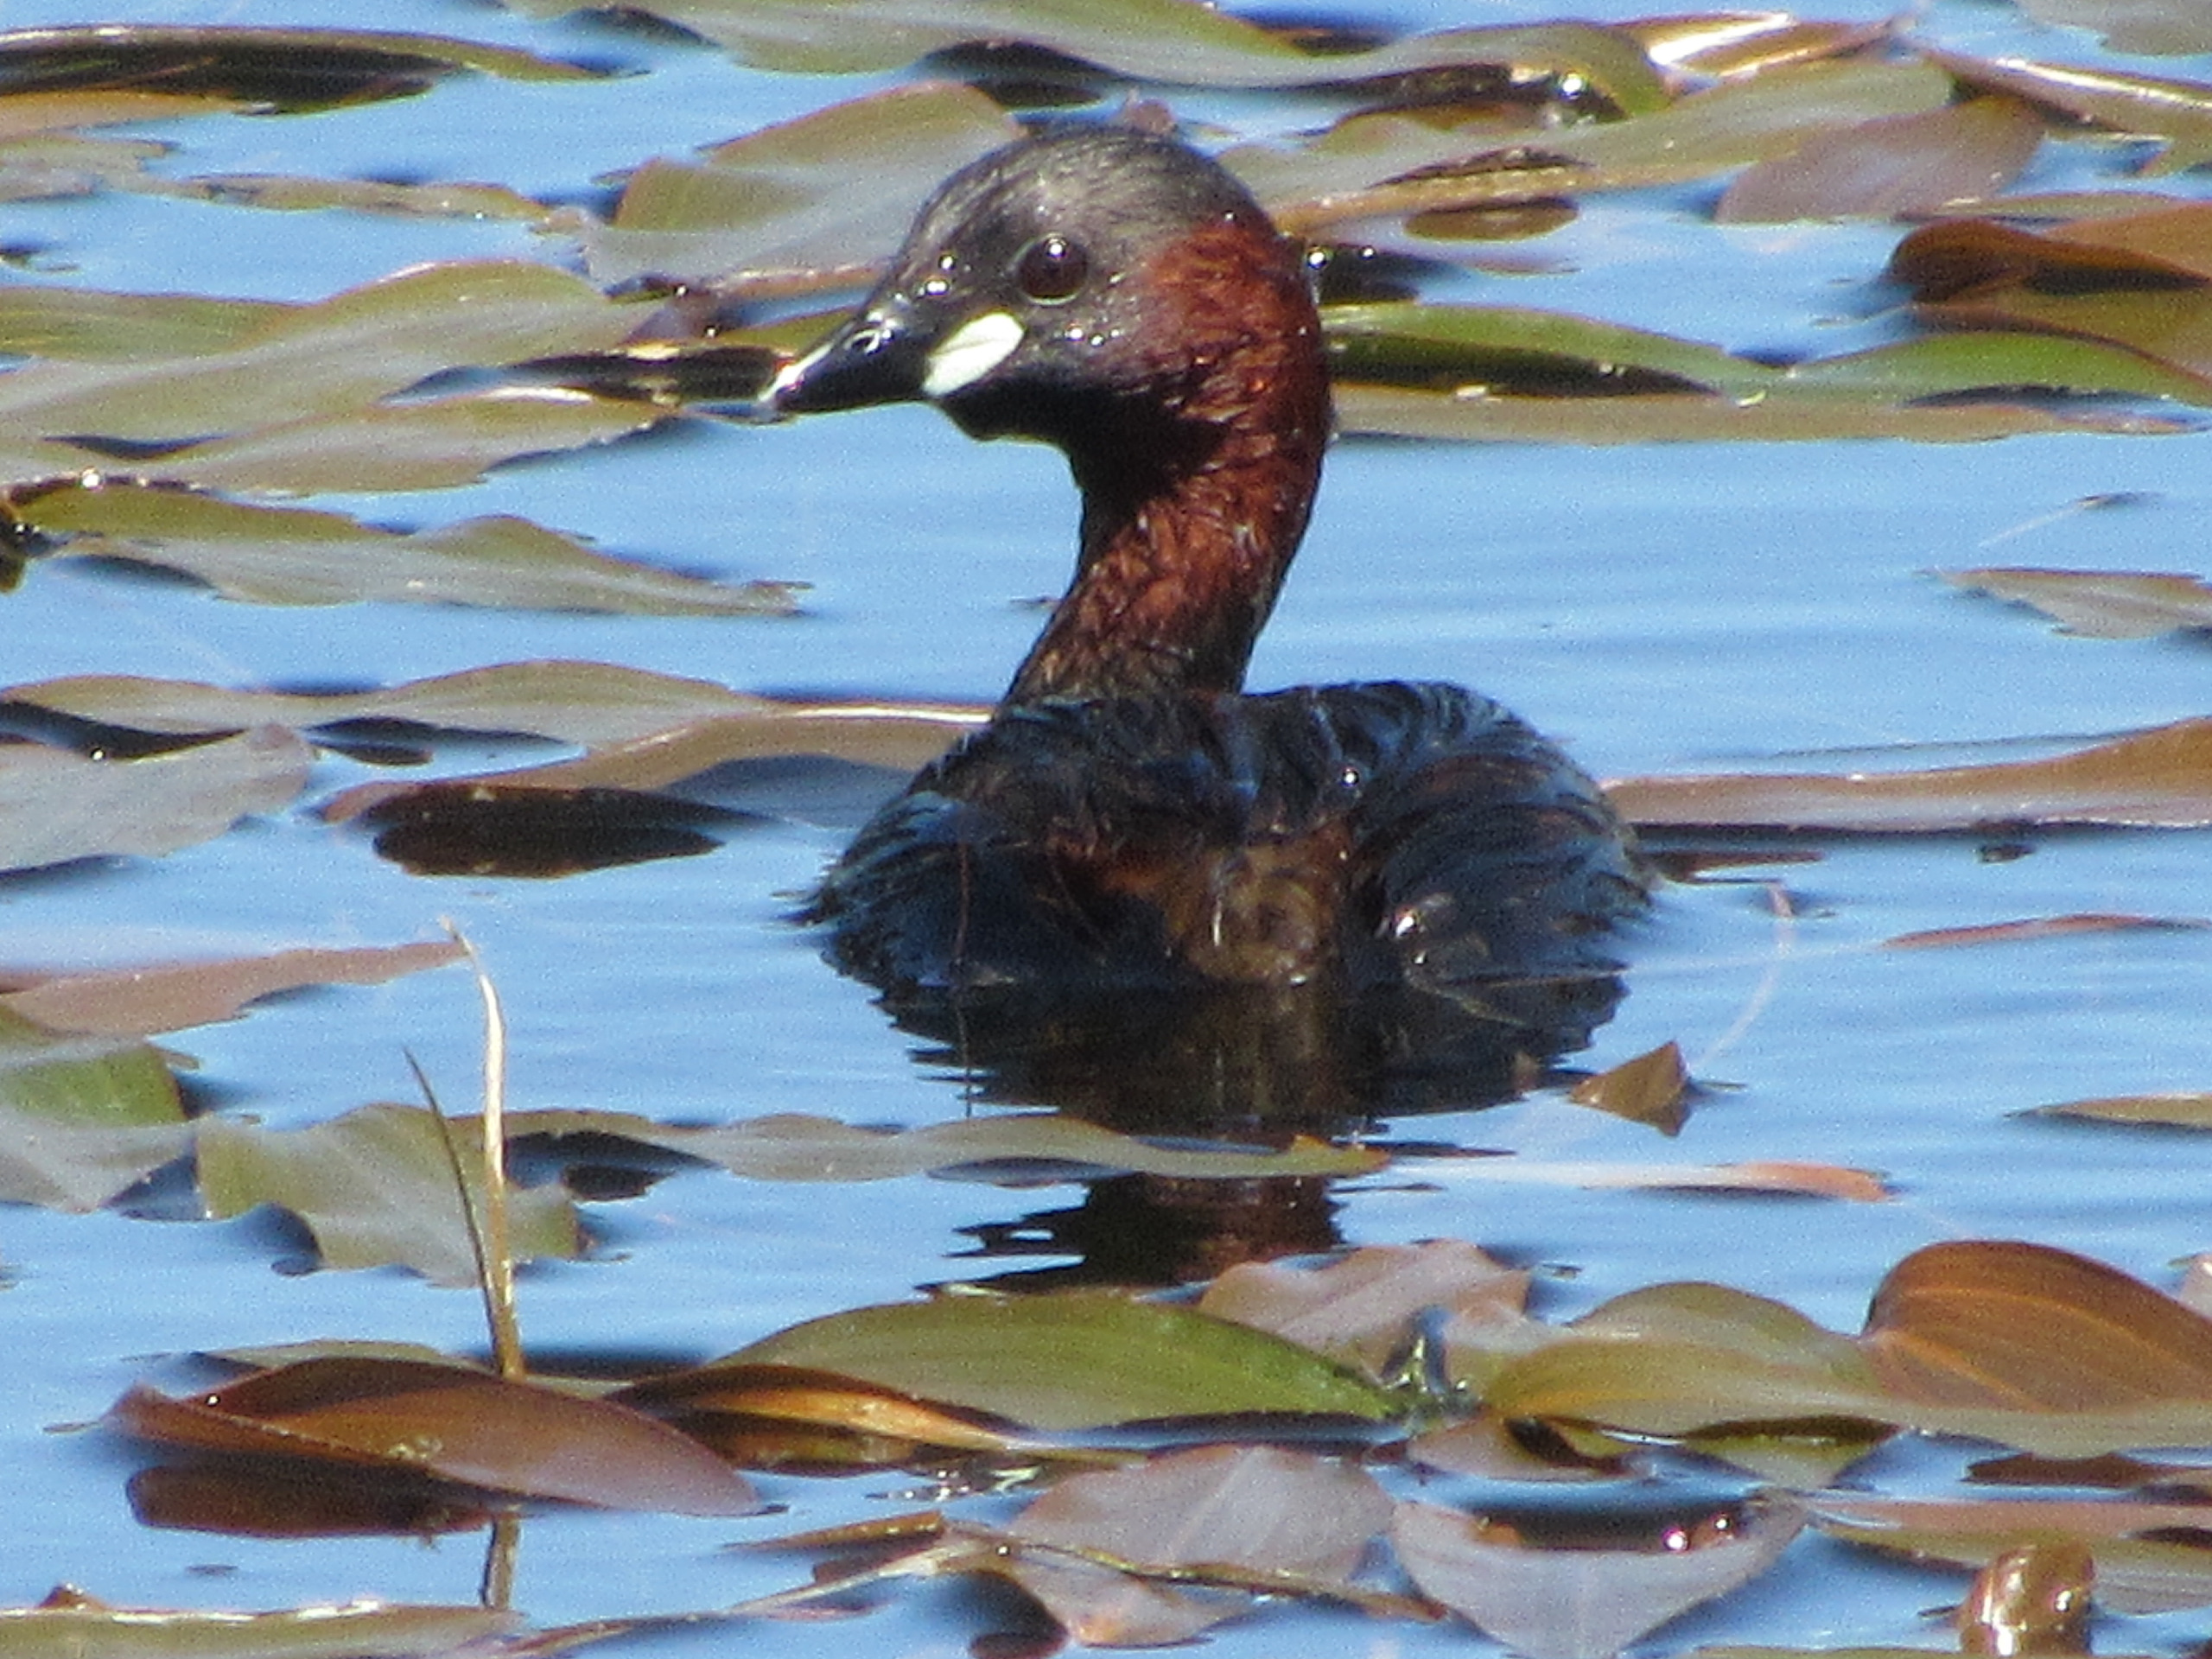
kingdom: Animalia
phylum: Chordata
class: Aves
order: Podicipediformes
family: Podicipedidae
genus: Tachybaptus
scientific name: Tachybaptus ruficollis
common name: Lille lappedykker
